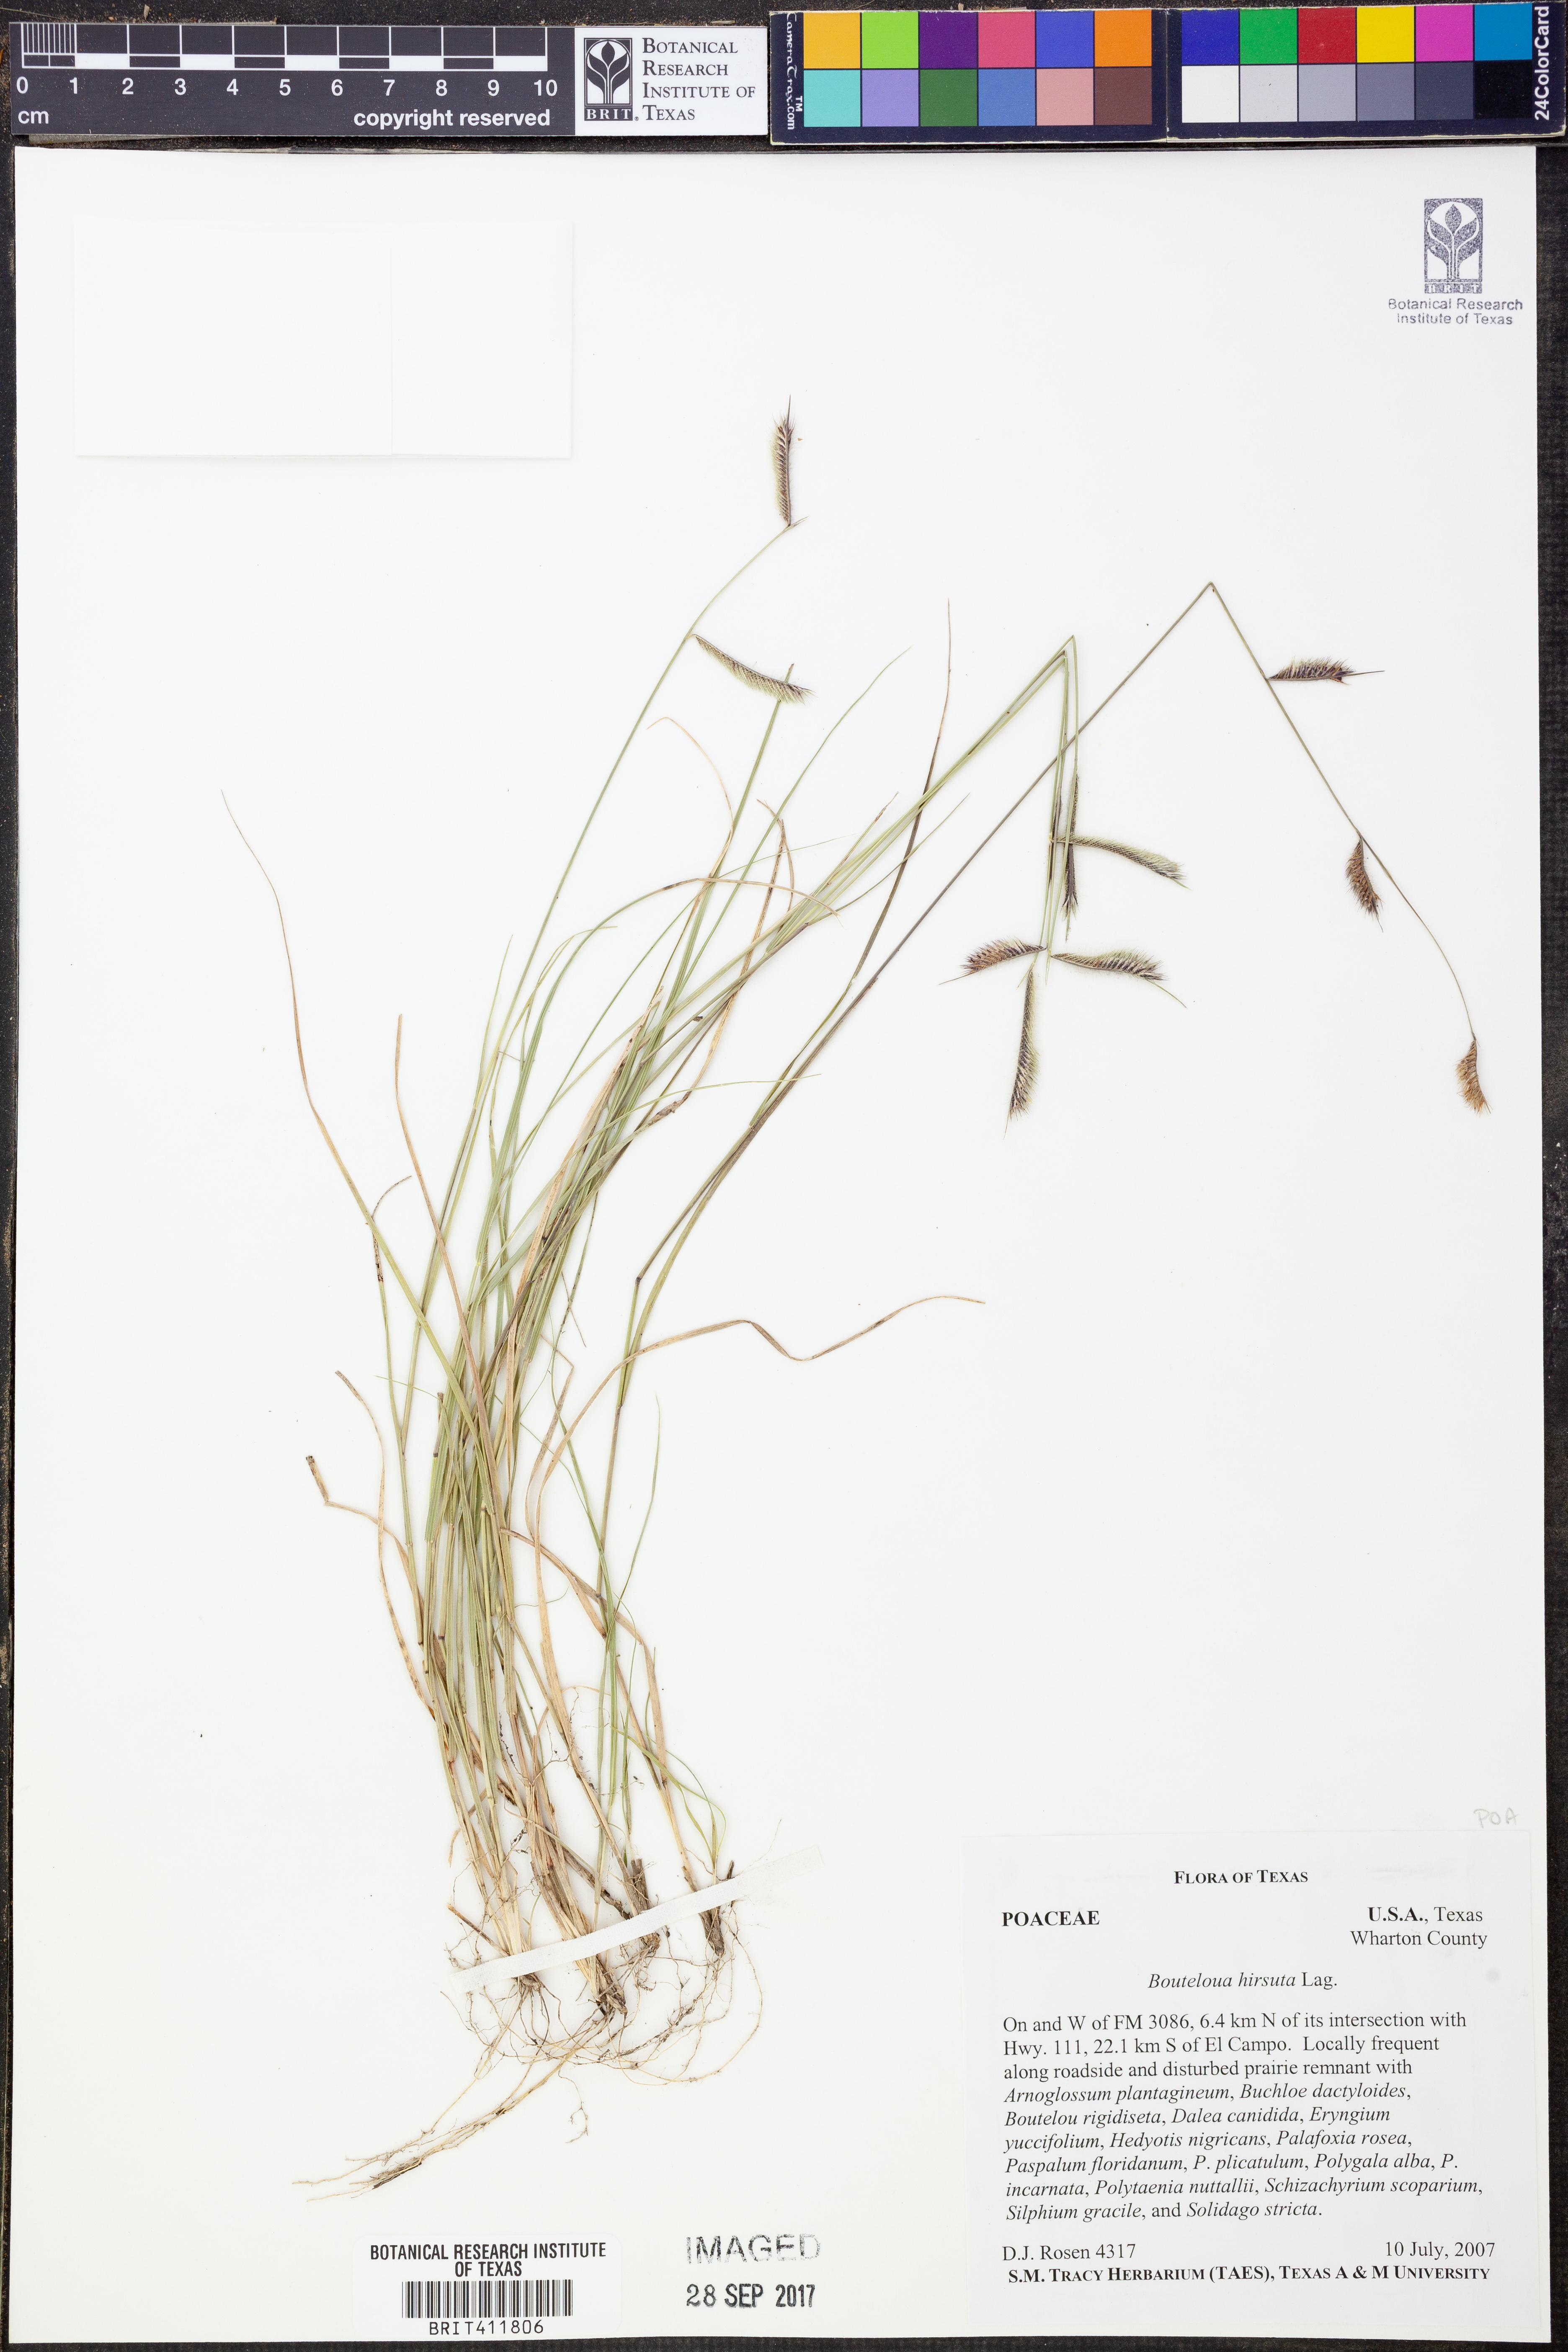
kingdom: Plantae
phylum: Tracheophyta
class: Liliopsida
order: Poales
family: Poaceae
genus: Bouteloua
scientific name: Bouteloua hirsuta
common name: Hairy grama
